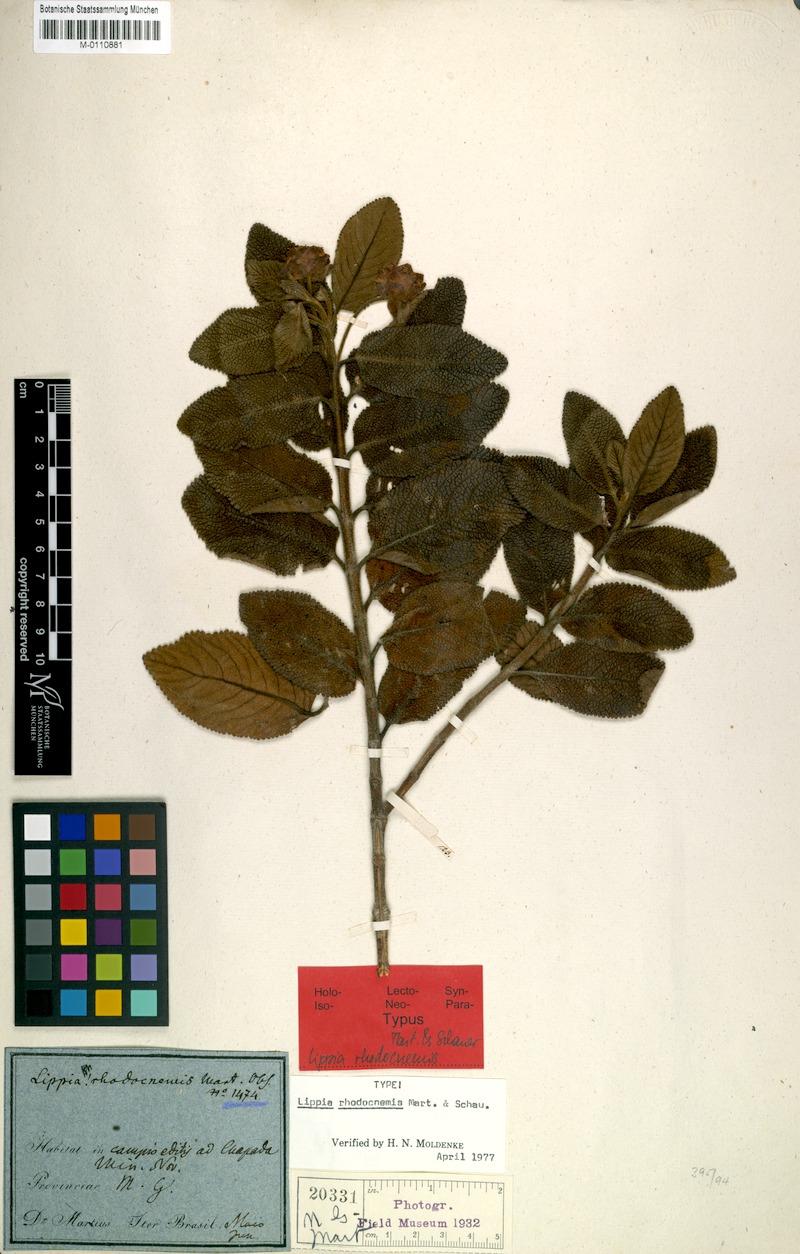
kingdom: Plantae
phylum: Tracheophyta
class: Magnoliopsida
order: Lamiales
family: Verbenaceae
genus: Lippia
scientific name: Lippia rhodocnemis
